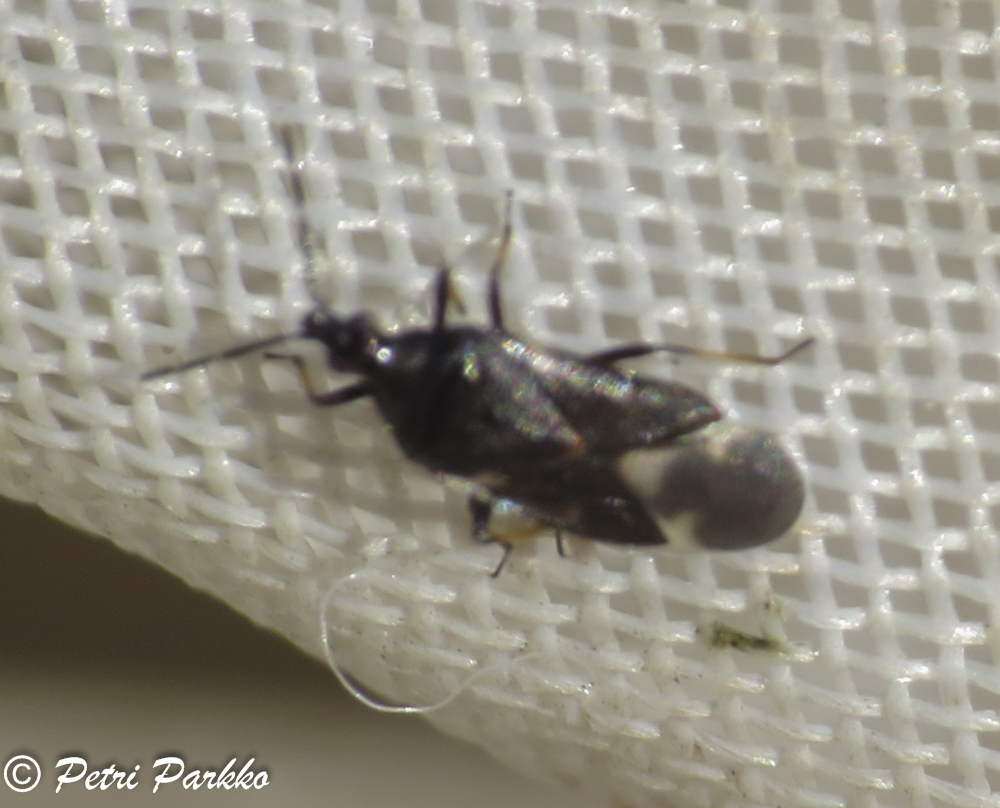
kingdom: Animalia
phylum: Arthropoda
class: Insecta
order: Hemiptera
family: Anthocoridae
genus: Temnostethus
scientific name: Temnostethus pusillus
